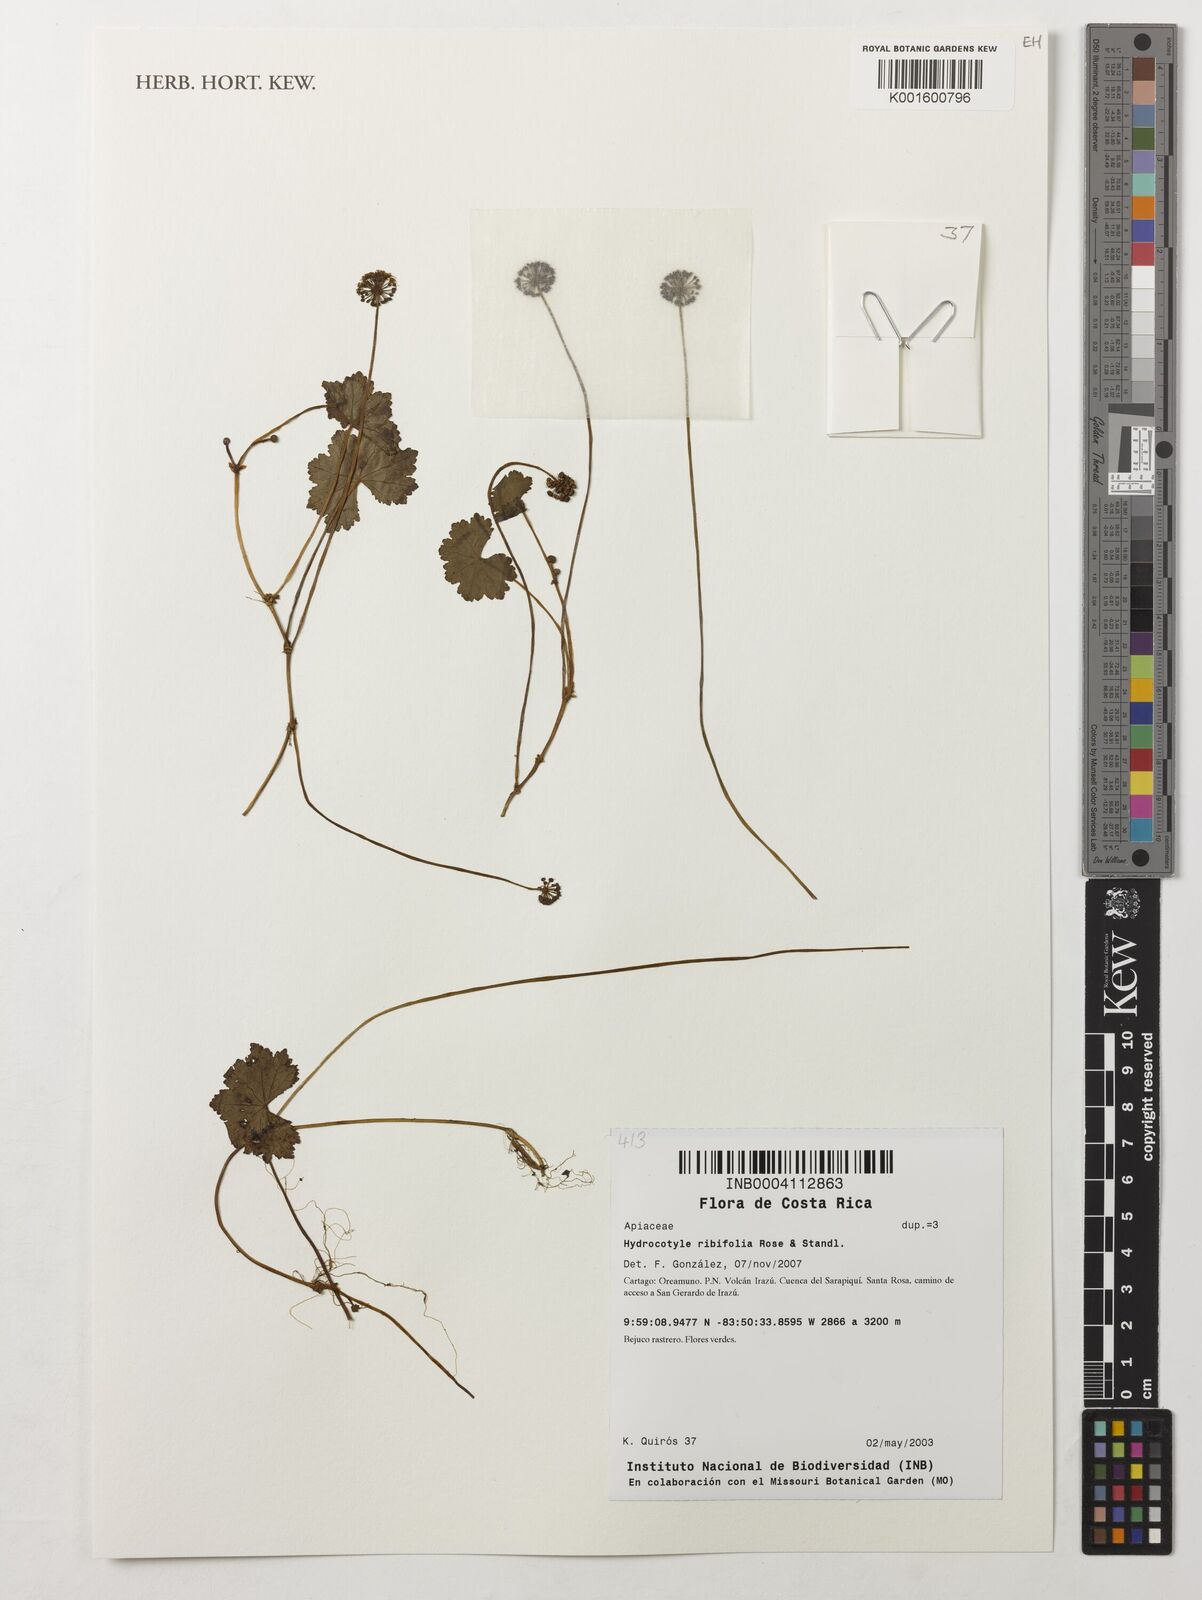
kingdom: Plantae
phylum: Tracheophyta
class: Magnoliopsida
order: Apiales
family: Araliaceae
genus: Hydrocotyle
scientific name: Hydrocotyle ribifolia
